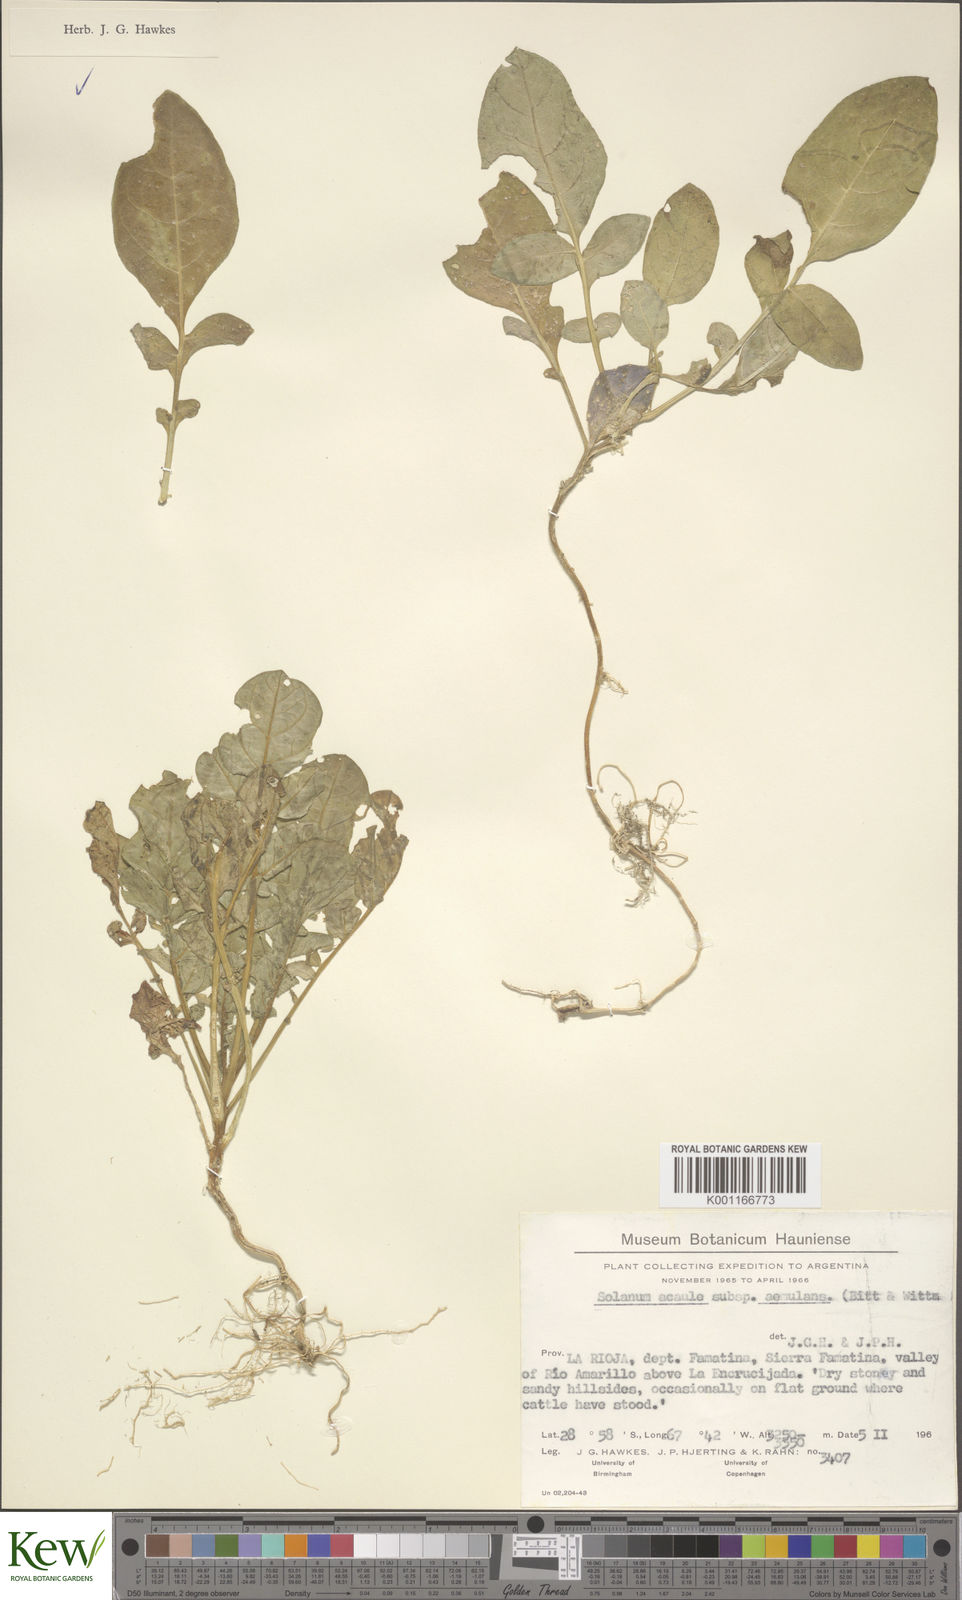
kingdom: Plantae
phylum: Tracheophyta
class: Magnoliopsida
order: Solanales
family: Solanaceae
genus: Solanum
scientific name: Solanum aemulans
